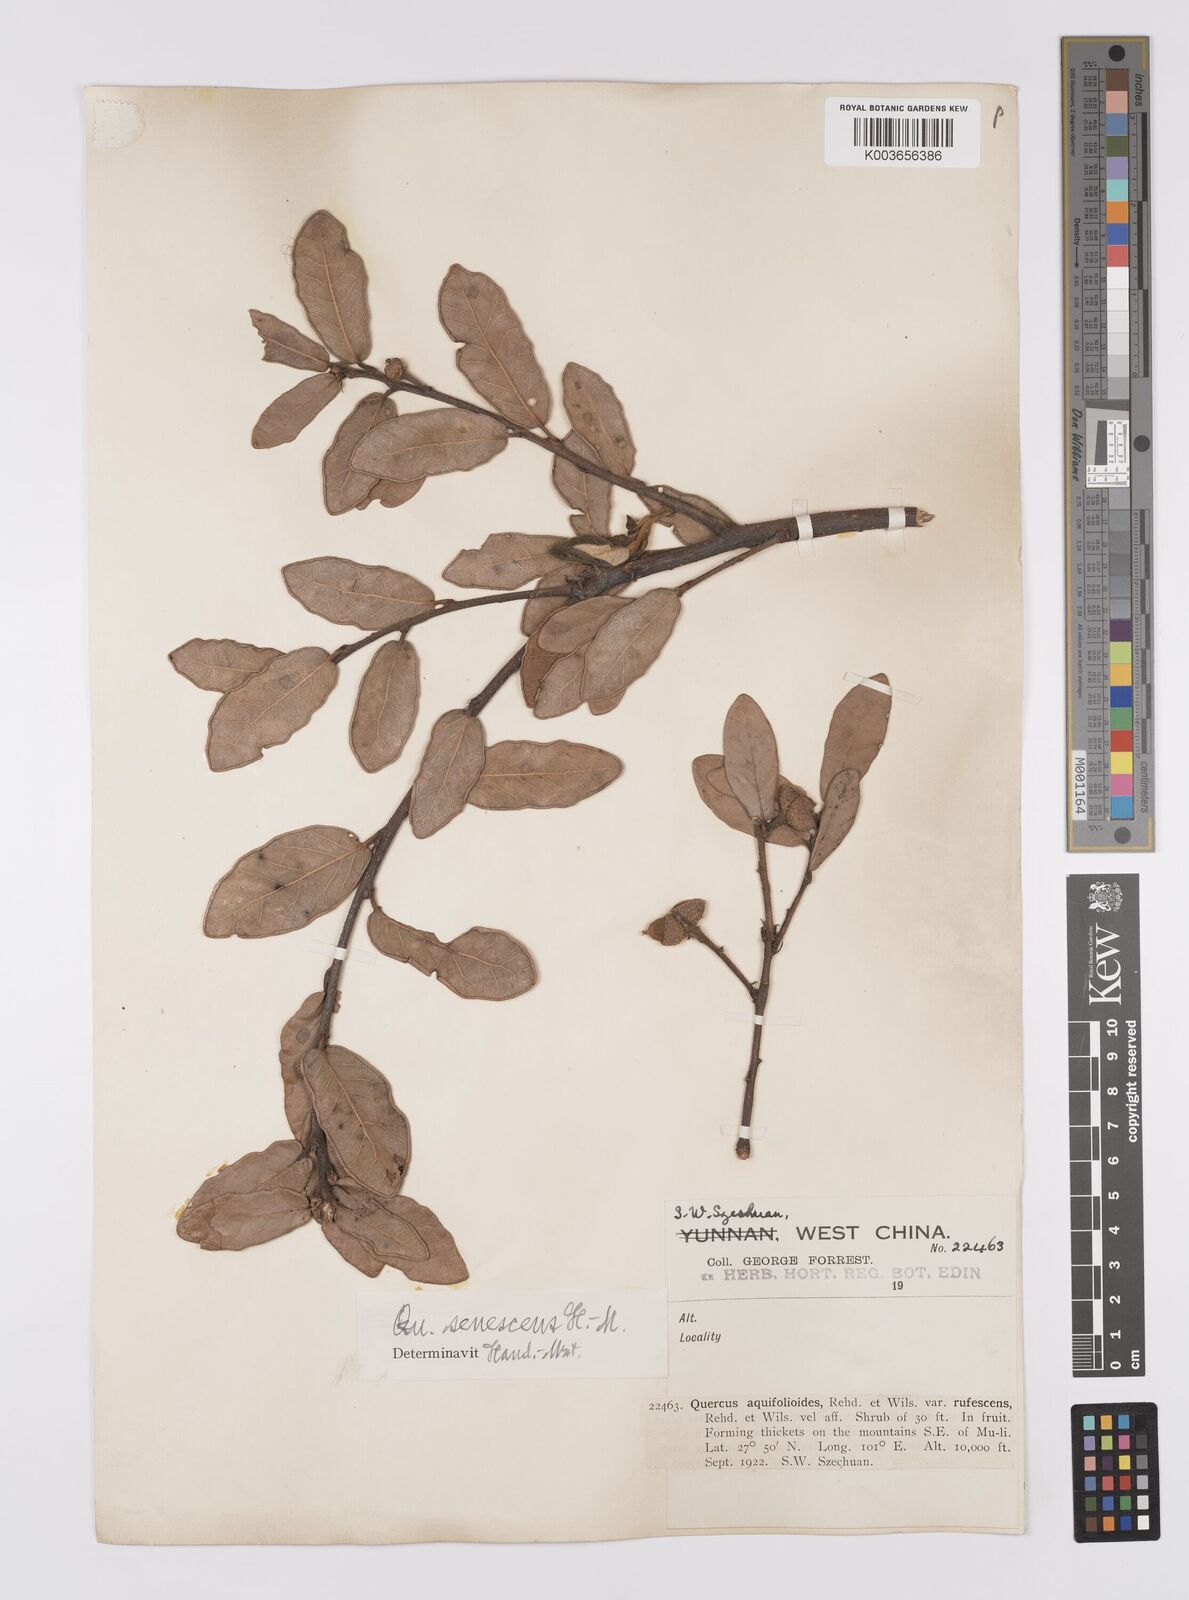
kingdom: Plantae
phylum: Tracheophyta
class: Magnoliopsida
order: Fagales
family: Fagaceae
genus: Quercus
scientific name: Quercus senescens
